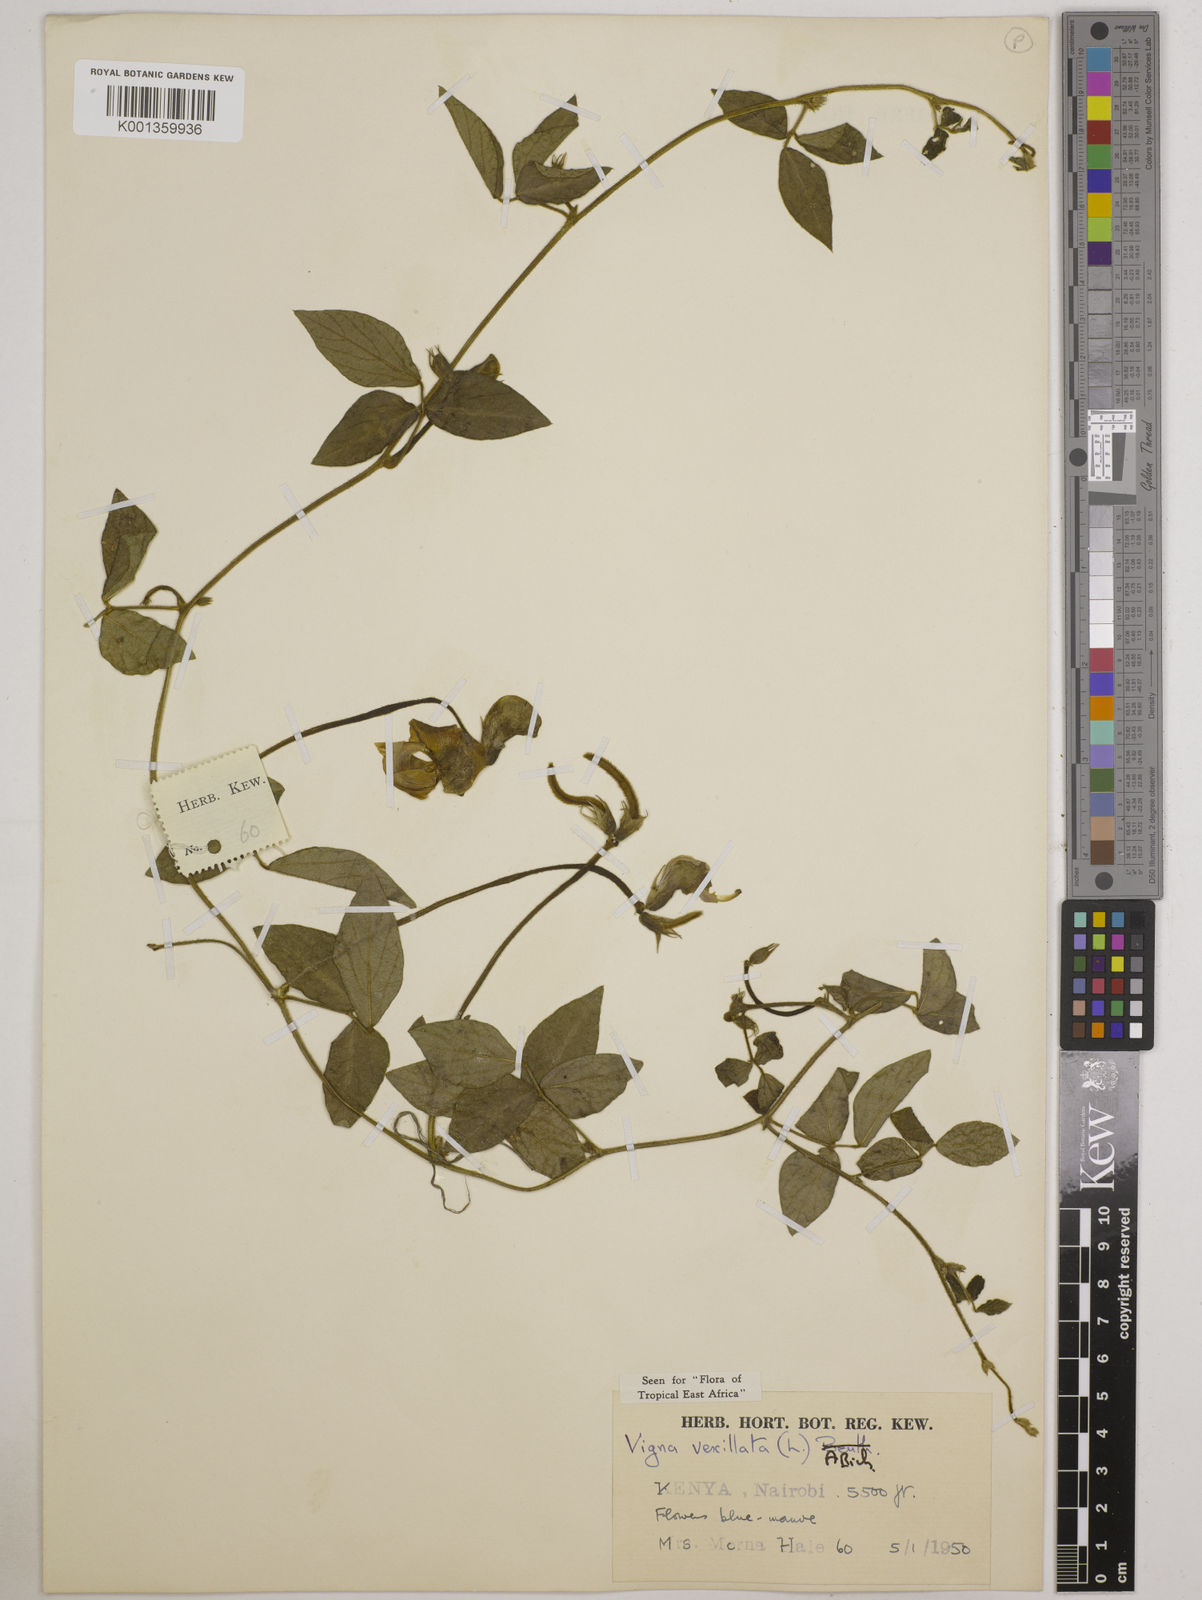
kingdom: Plantae
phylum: Tracheophyta
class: Magnoliopsida
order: Fabales
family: Fabaceae
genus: Vigna
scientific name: Vigna vexillata
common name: Zombi pea
